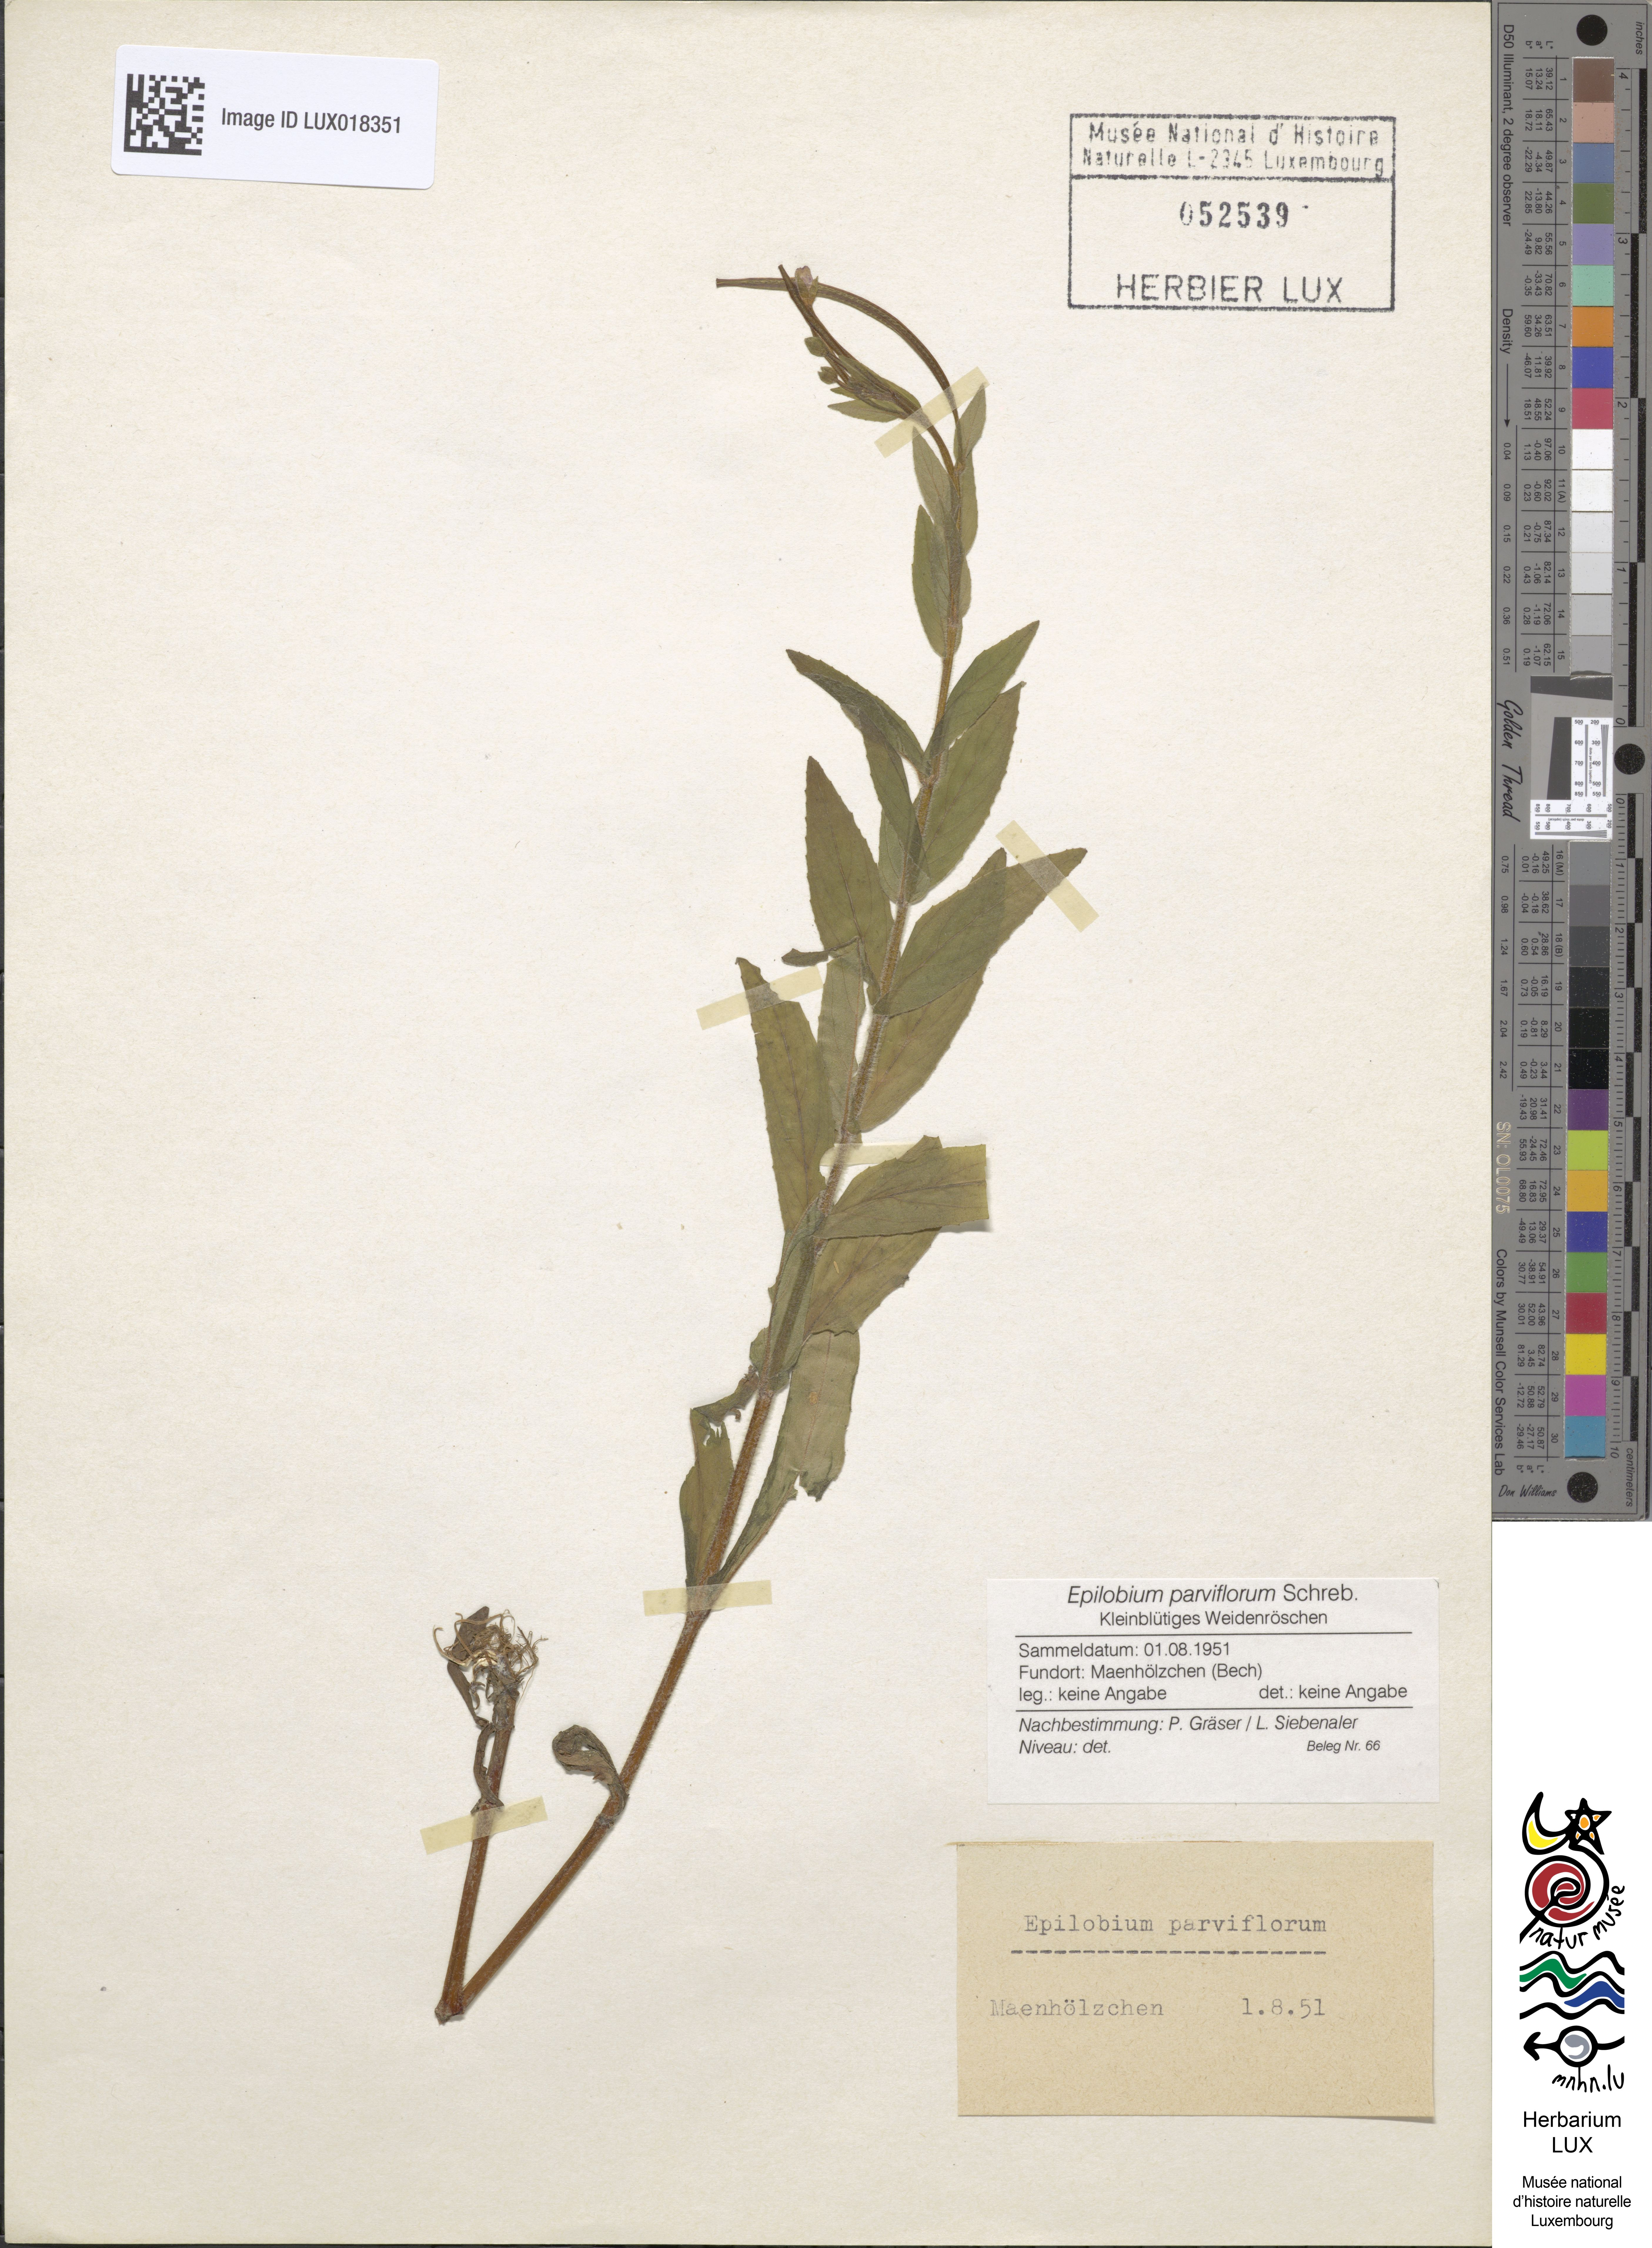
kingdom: Plantae
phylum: Tracheophyta
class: Magnoliopsida
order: Myrtales
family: Onagraceae
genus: Epilobium
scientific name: Epilobium parviflorum
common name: Hoary willowherb
